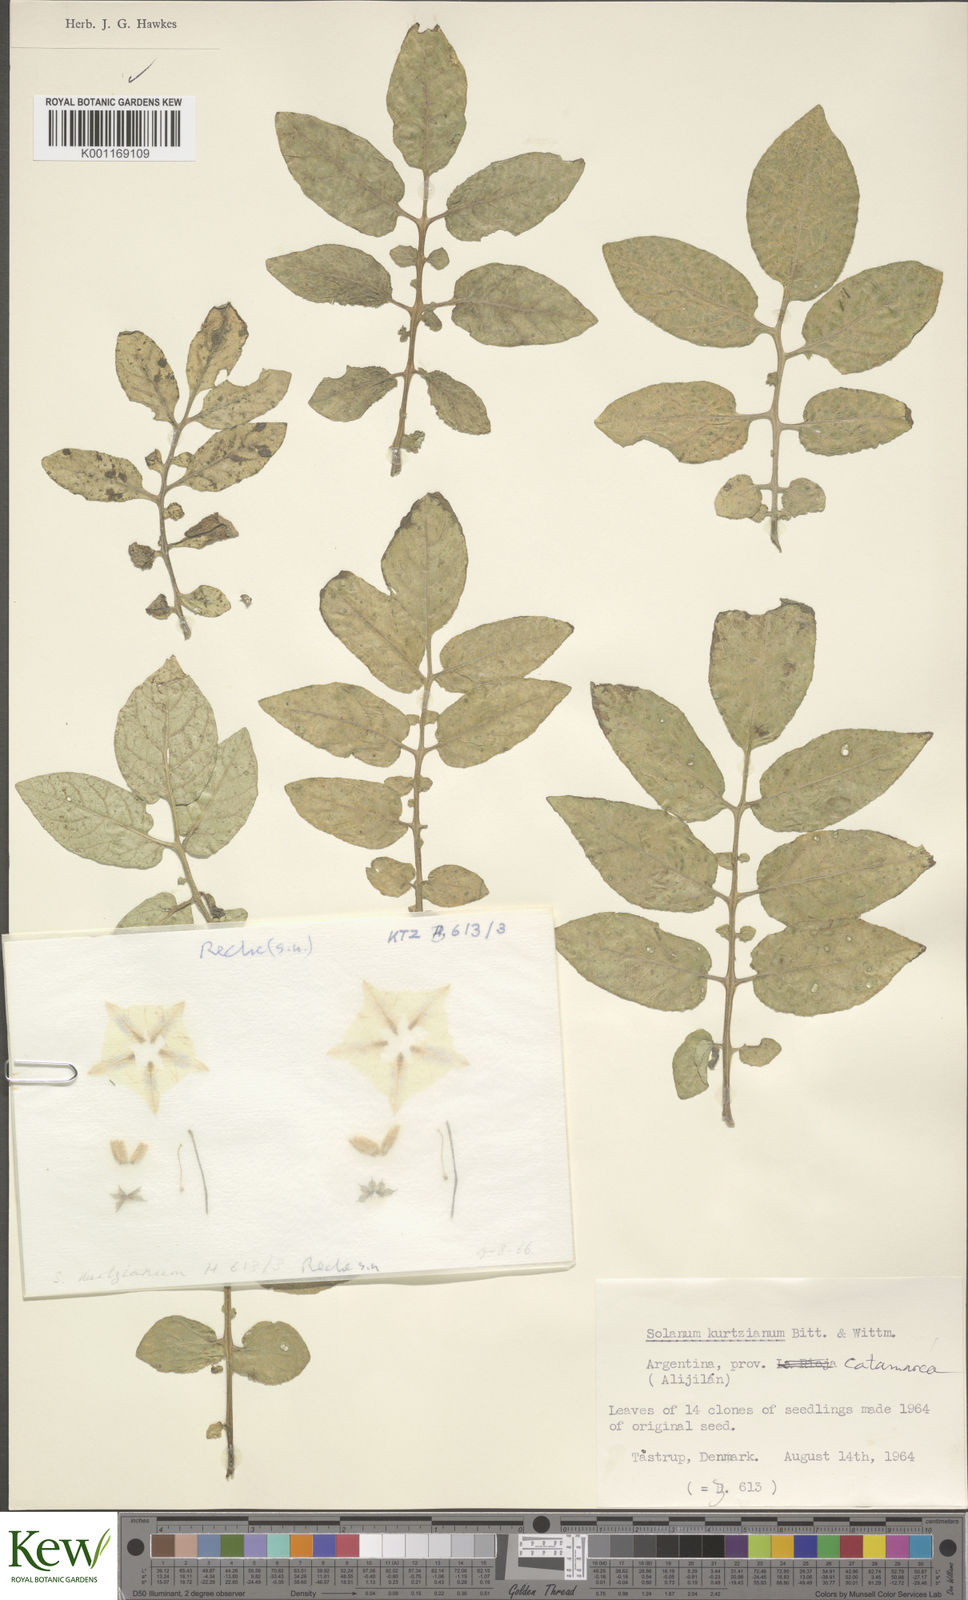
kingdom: Plantae
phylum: Tracheophyta
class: Magnoliopsida
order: Solanales
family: Solanaceae
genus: Solanum
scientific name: Solanum kurtzianum
